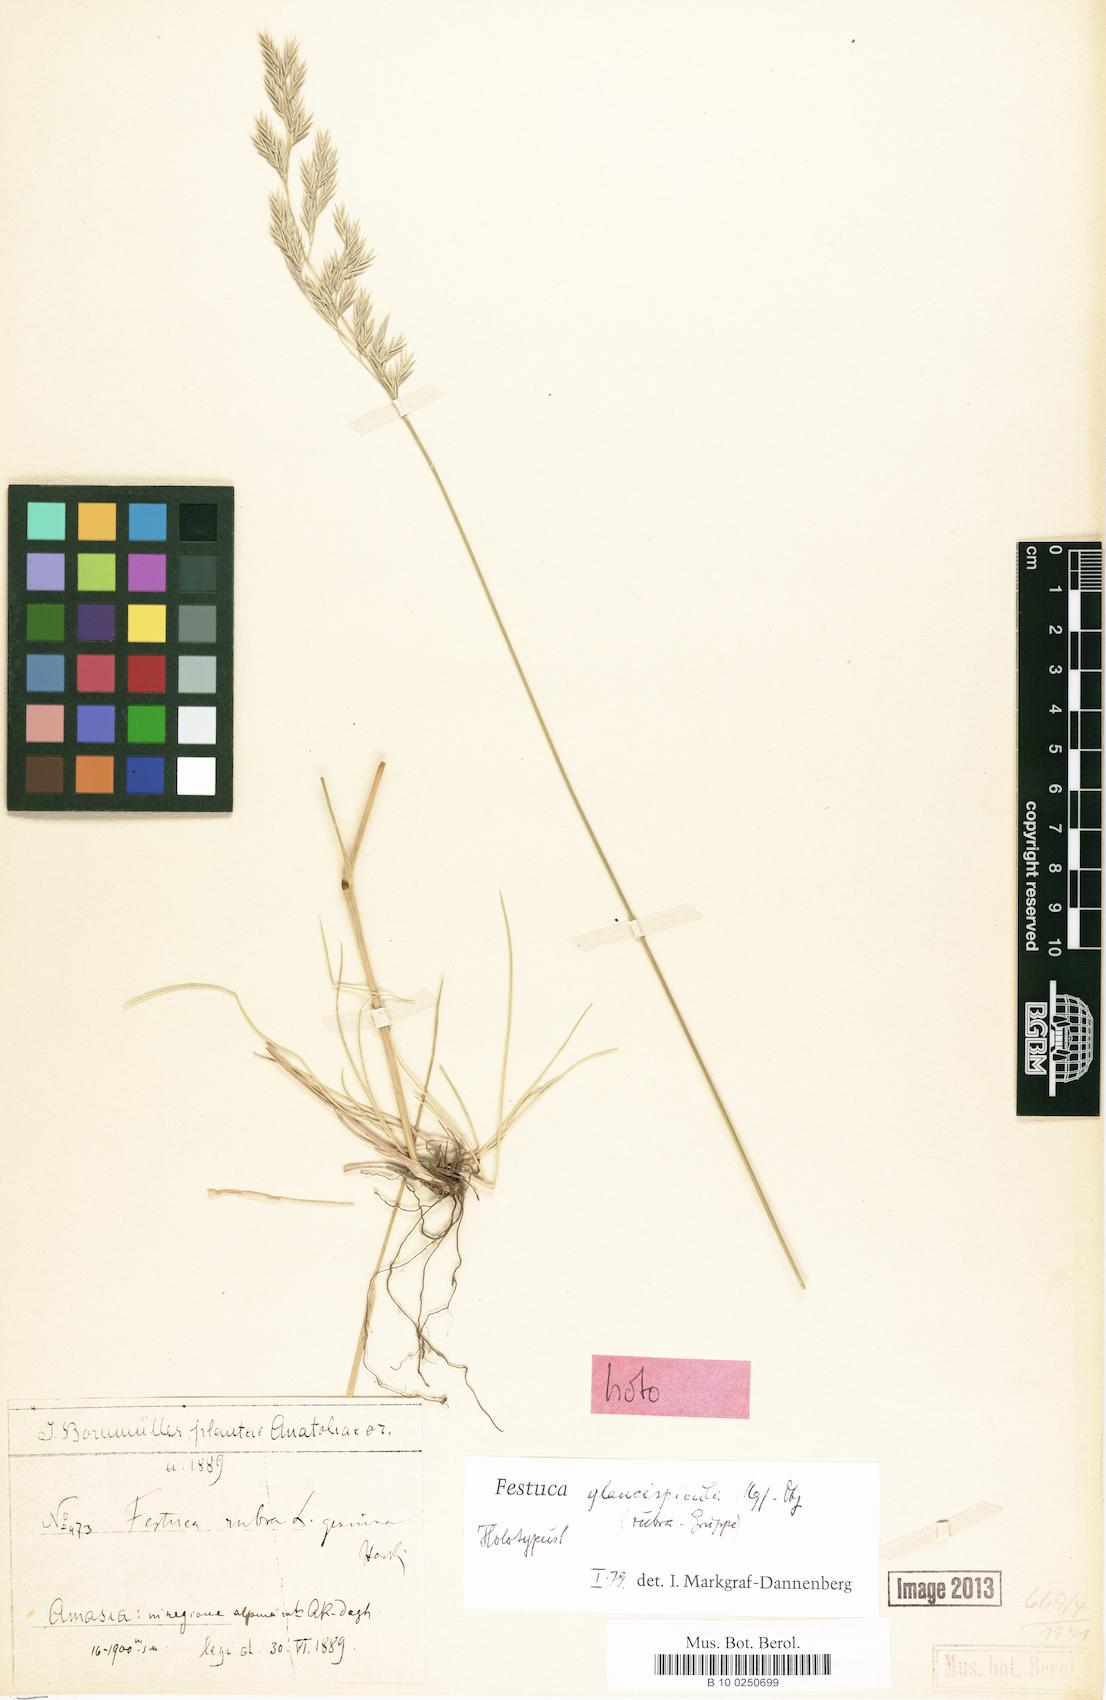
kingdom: Plantae
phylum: Tracheophyta
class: Liliopsida
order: Poales
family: Poaceae
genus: Festuca
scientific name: Festuca glaucispicula
